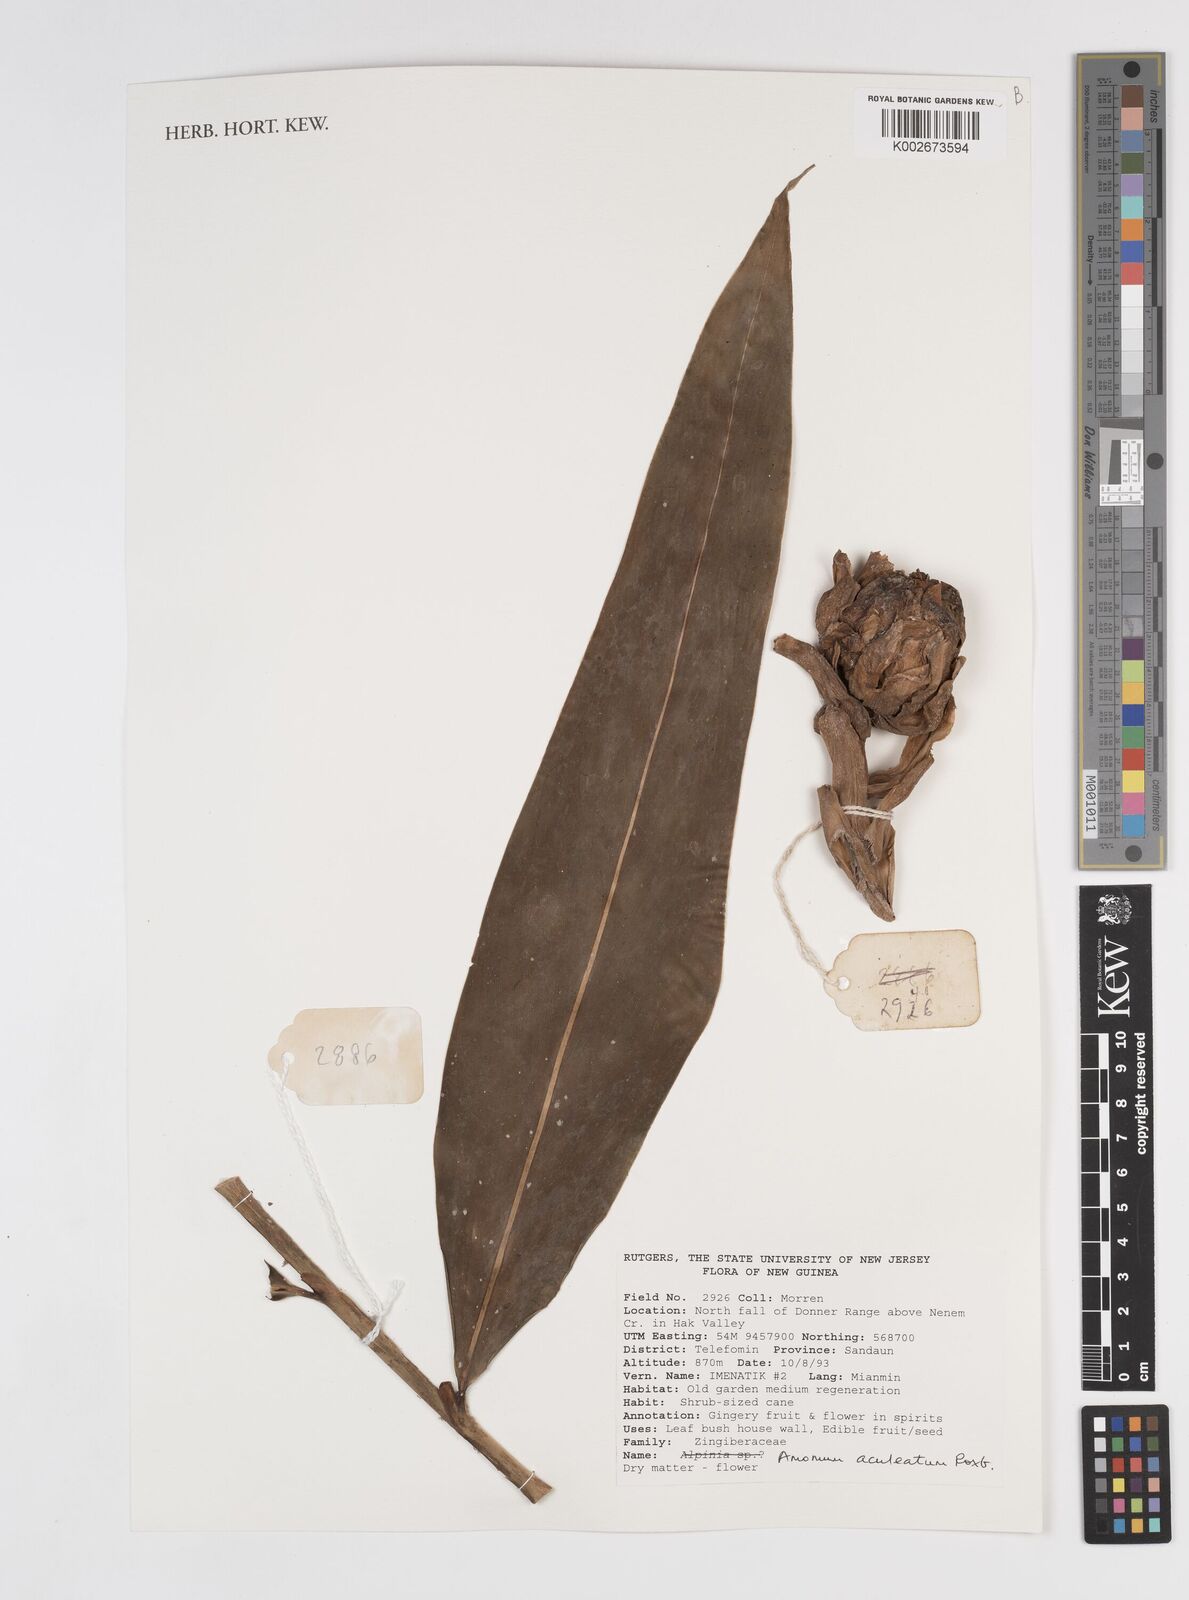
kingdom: Plantae
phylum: Tracheophyta
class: Liliopsida
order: Zingiberales
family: Zingiberaceae
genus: Meistera
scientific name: Meistera aculeata
